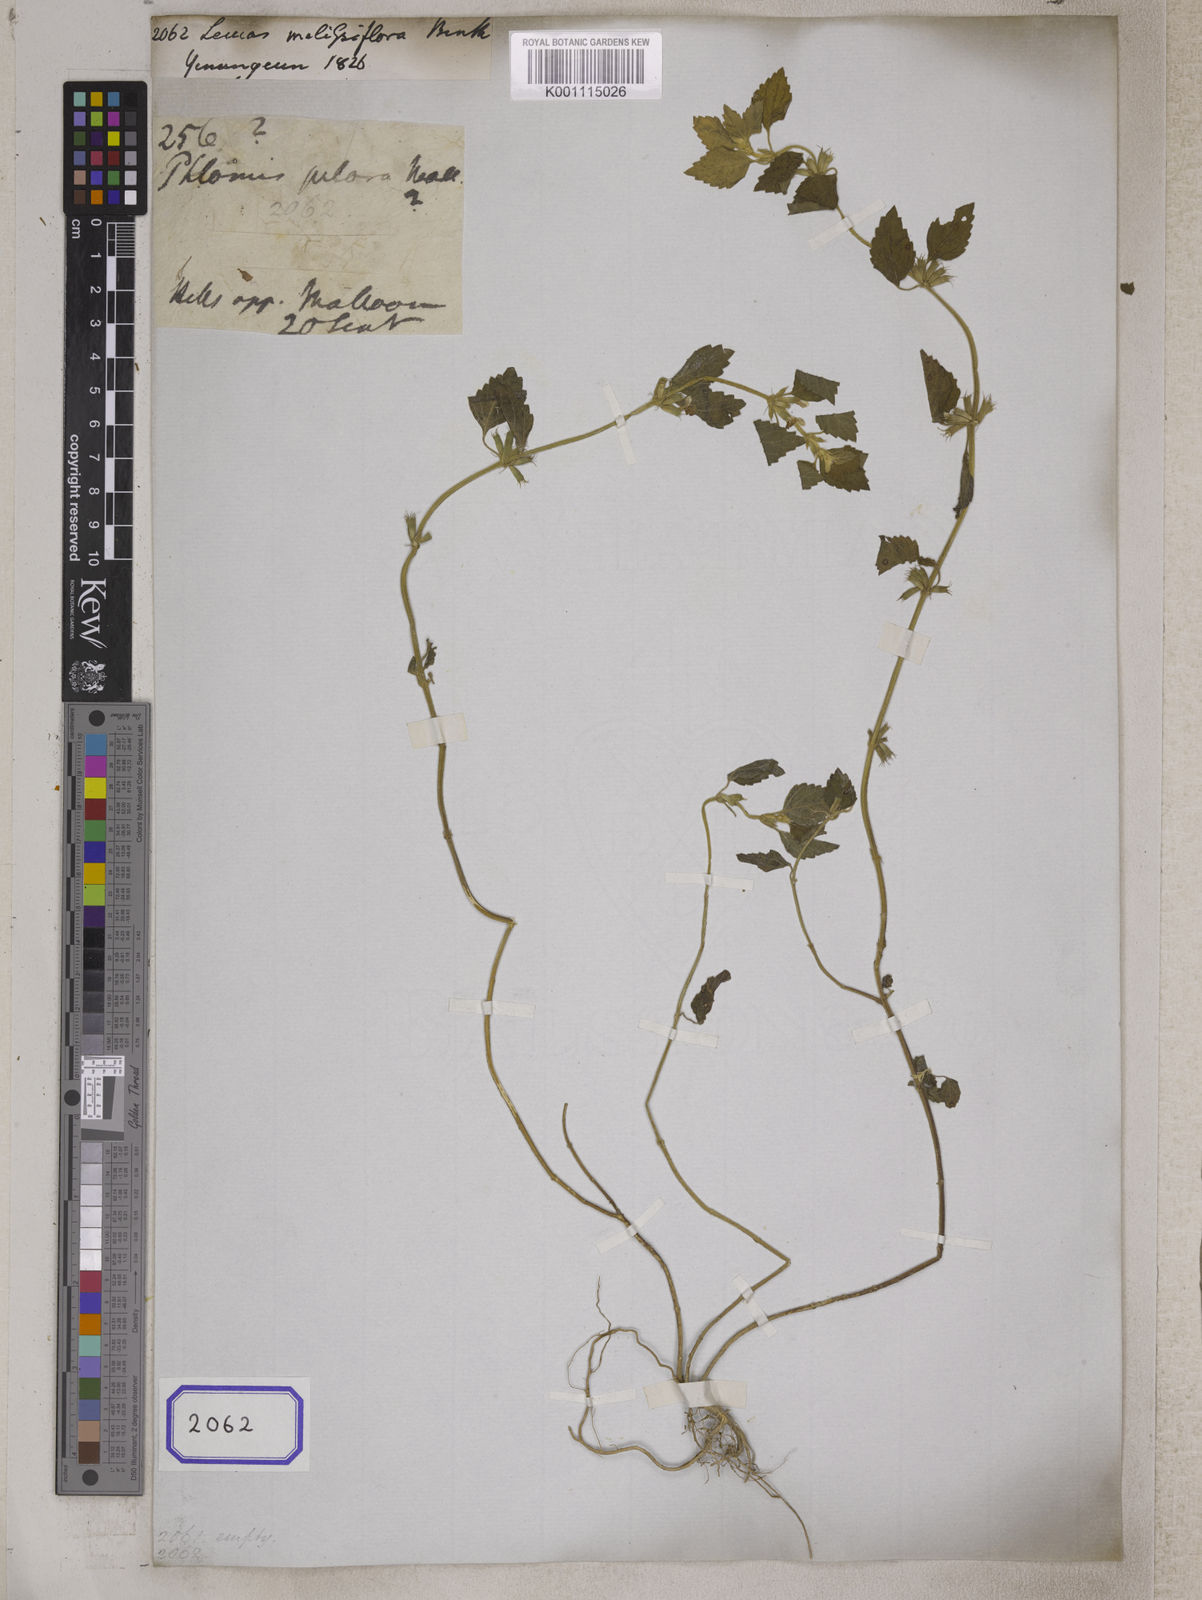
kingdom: Plantae
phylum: Tracheophyta
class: Magnoliopsida
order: Lamiales
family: Lamiaceae
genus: Leucas
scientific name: Leucas
